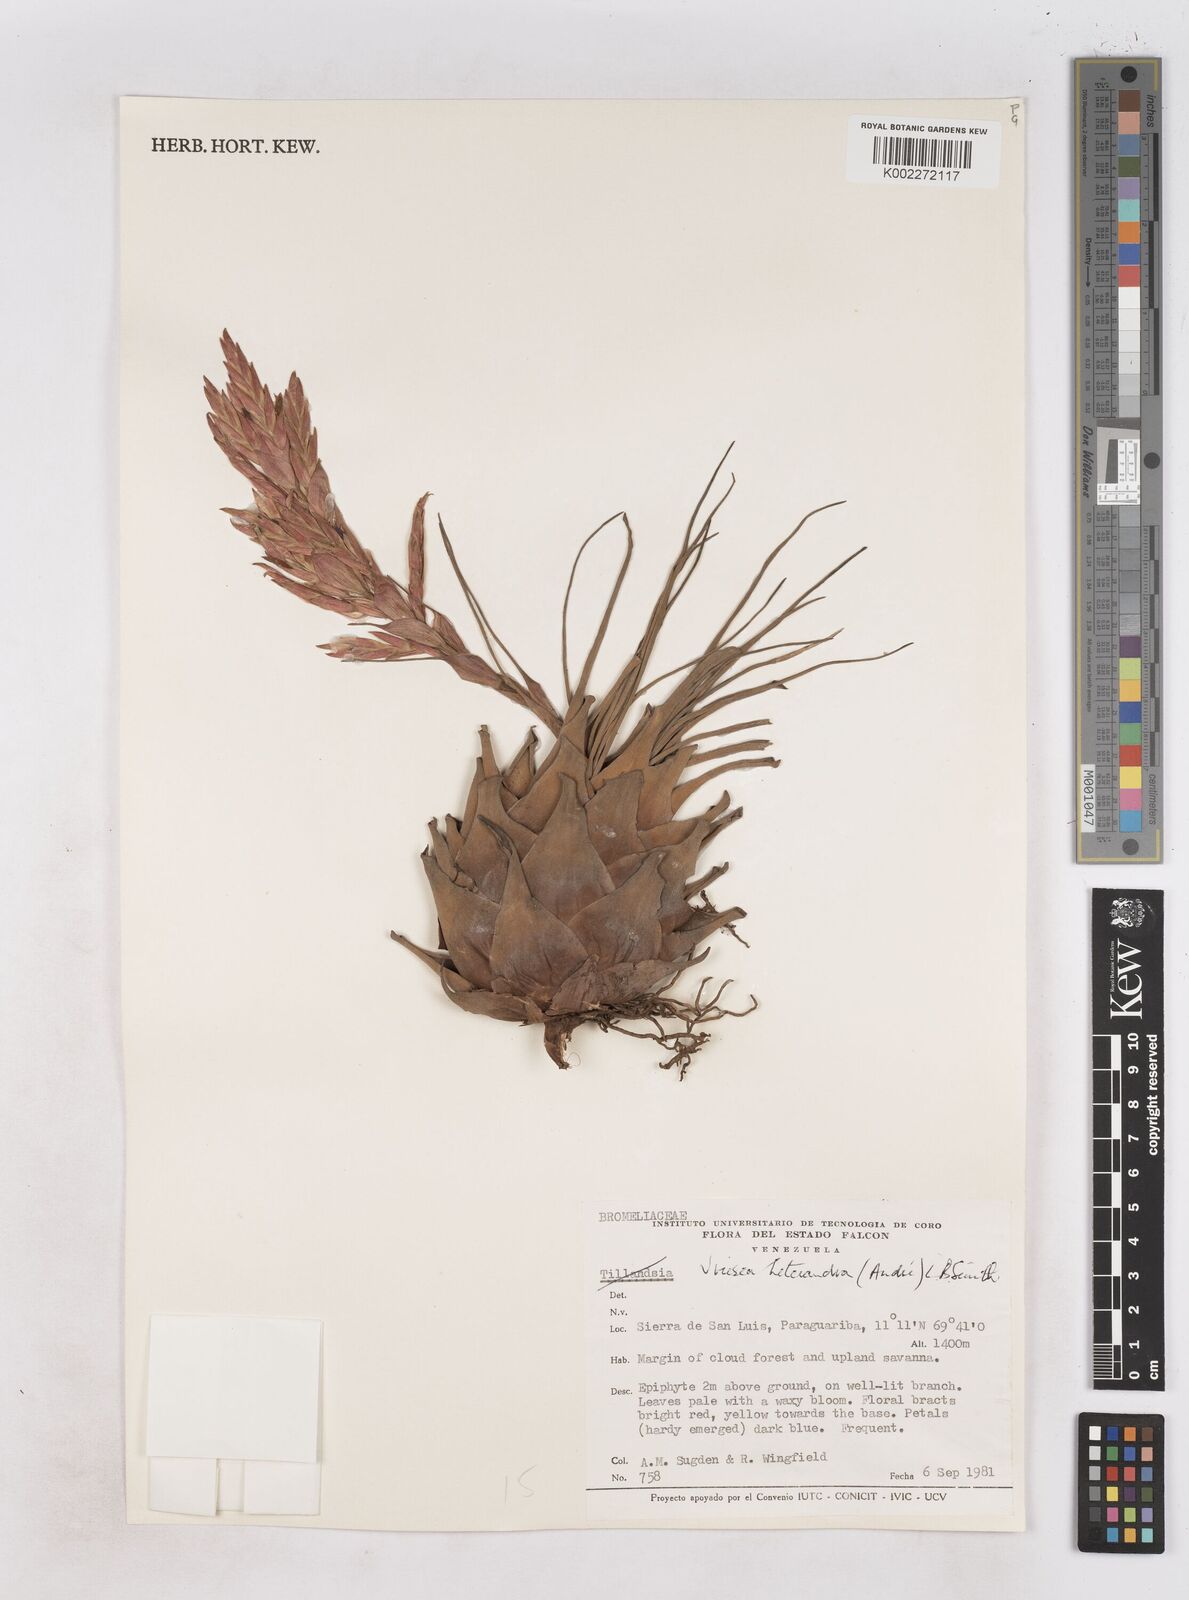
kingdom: Plantae
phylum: Tracheophyta
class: Liliopsida
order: Poales
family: Bromeliaceae
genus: Tillandsia
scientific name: Tillandsia heterandra
